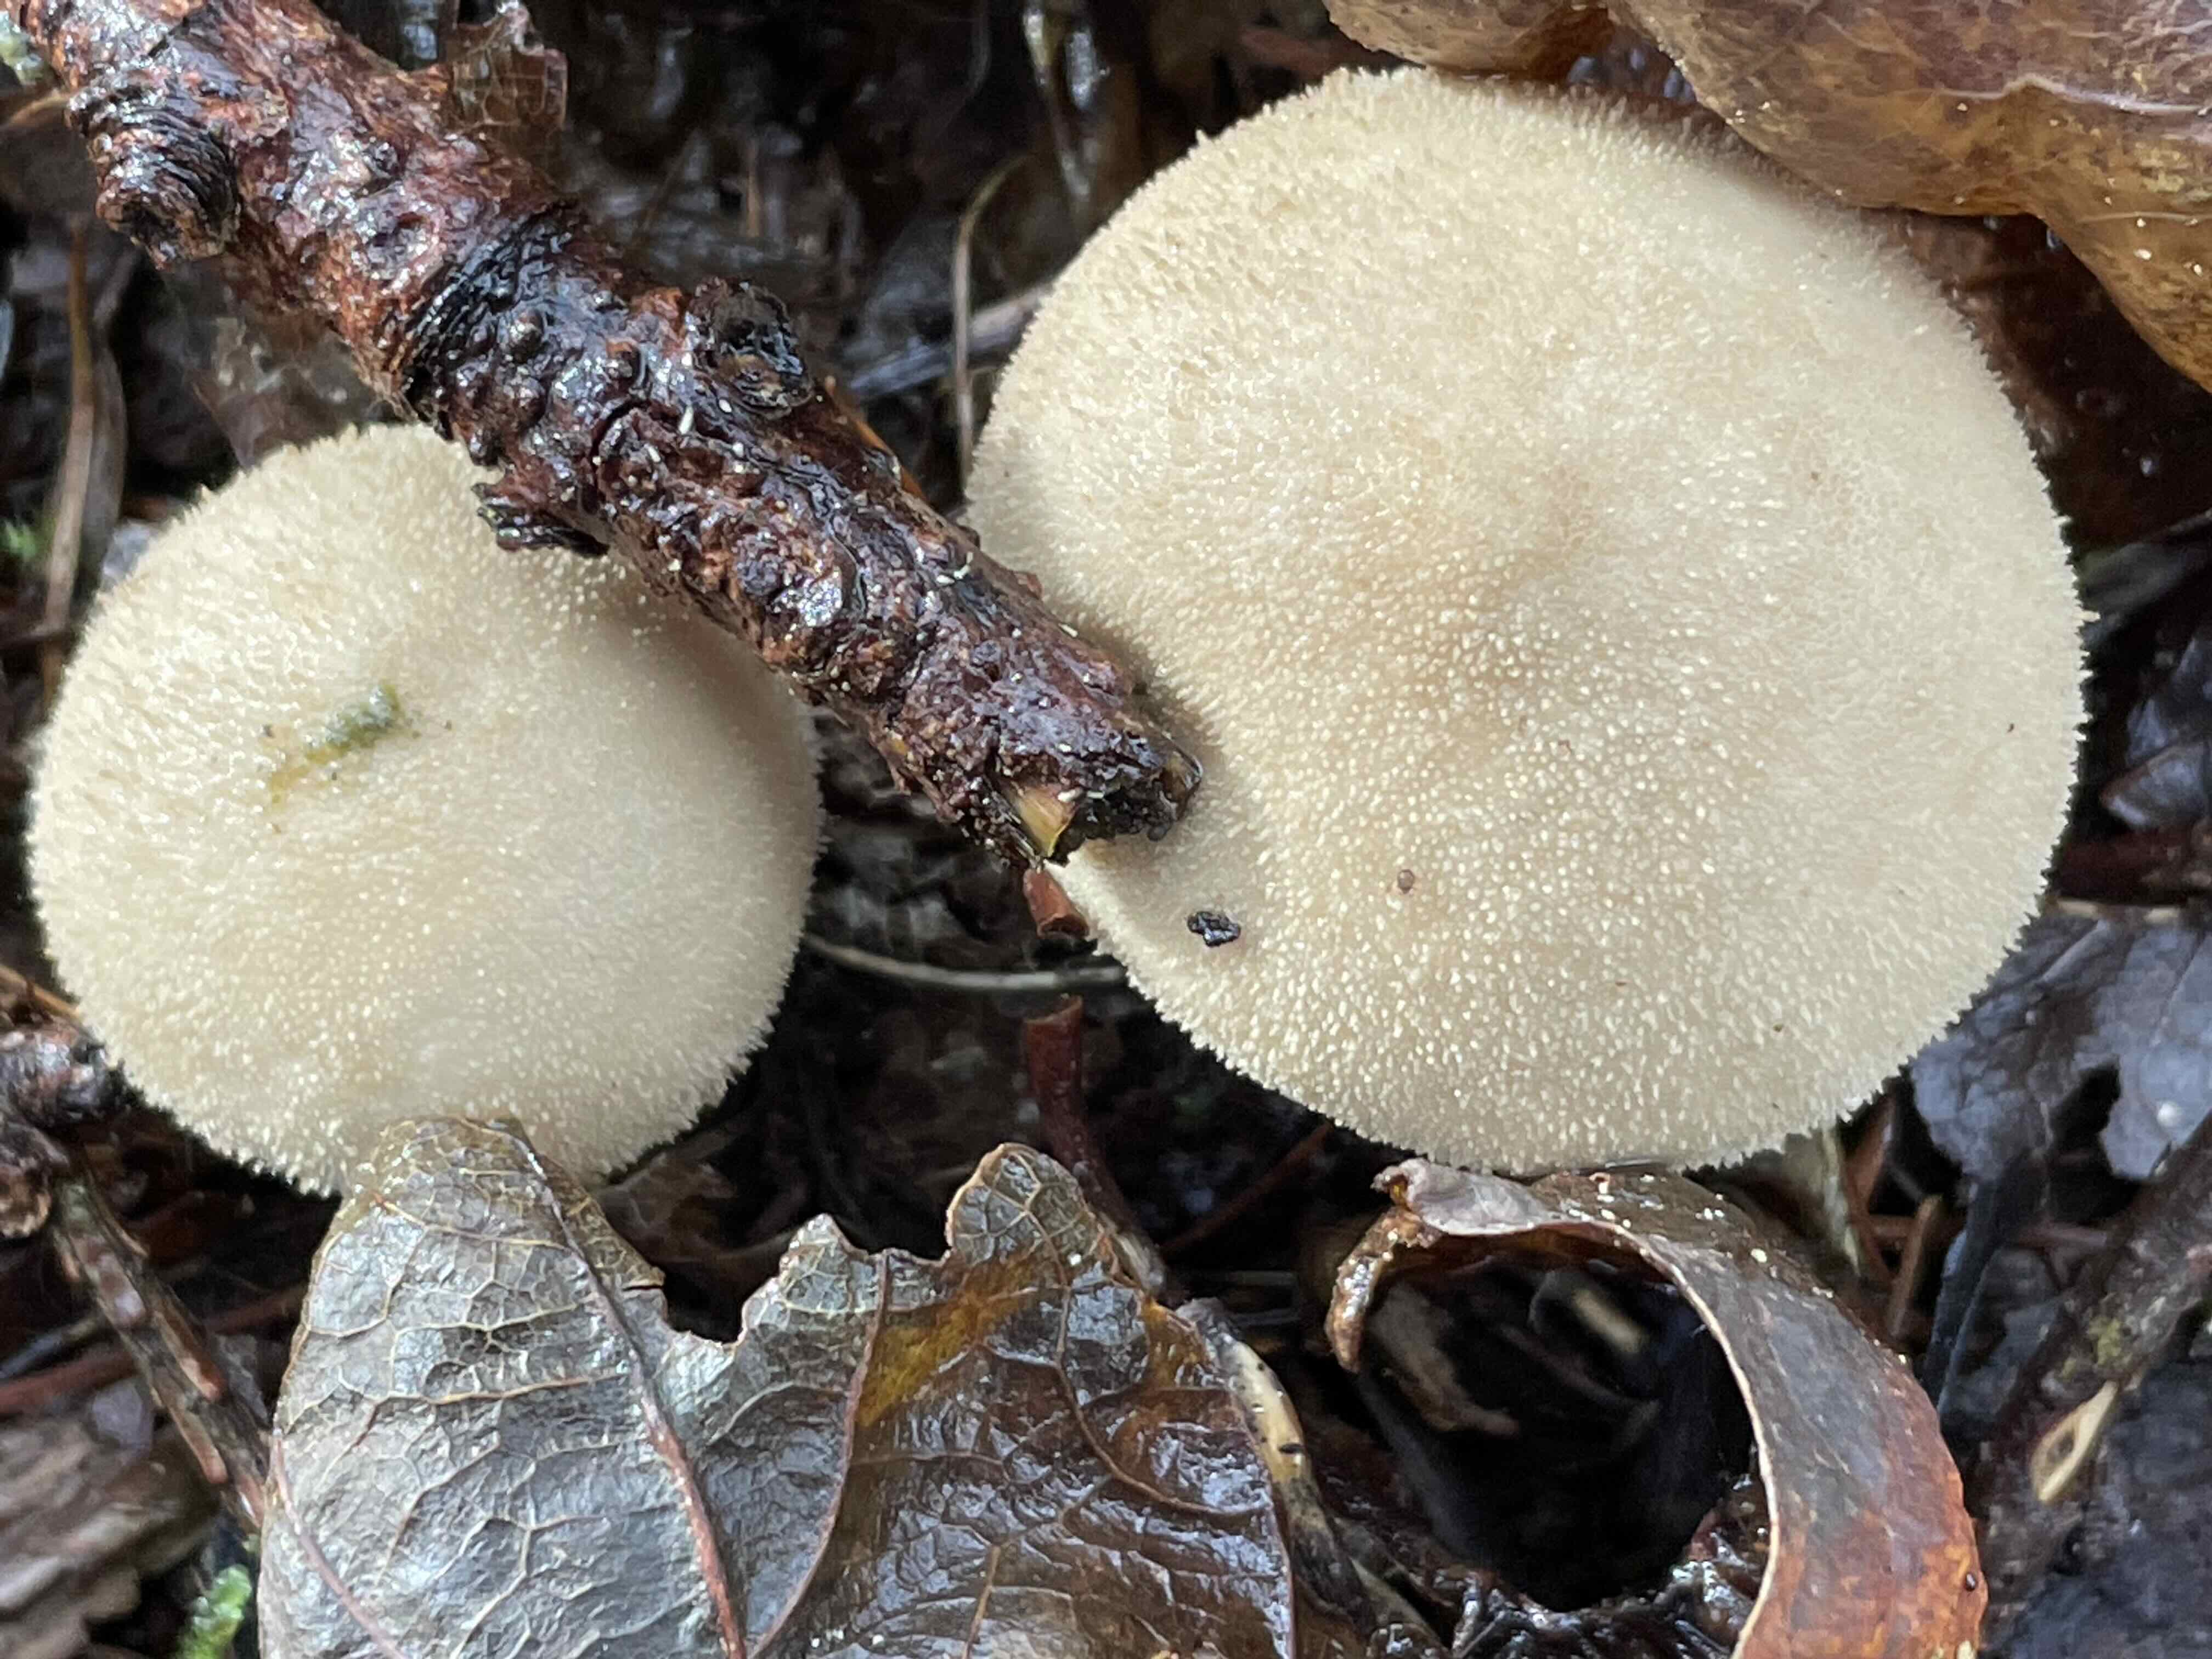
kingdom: Fungi
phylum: Basidiomycota
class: Agaricomycetes
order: Agaricales
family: Lycoperdaceae
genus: Lycoperdon
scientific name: Lycoperdon molle
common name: skov-støvbold
